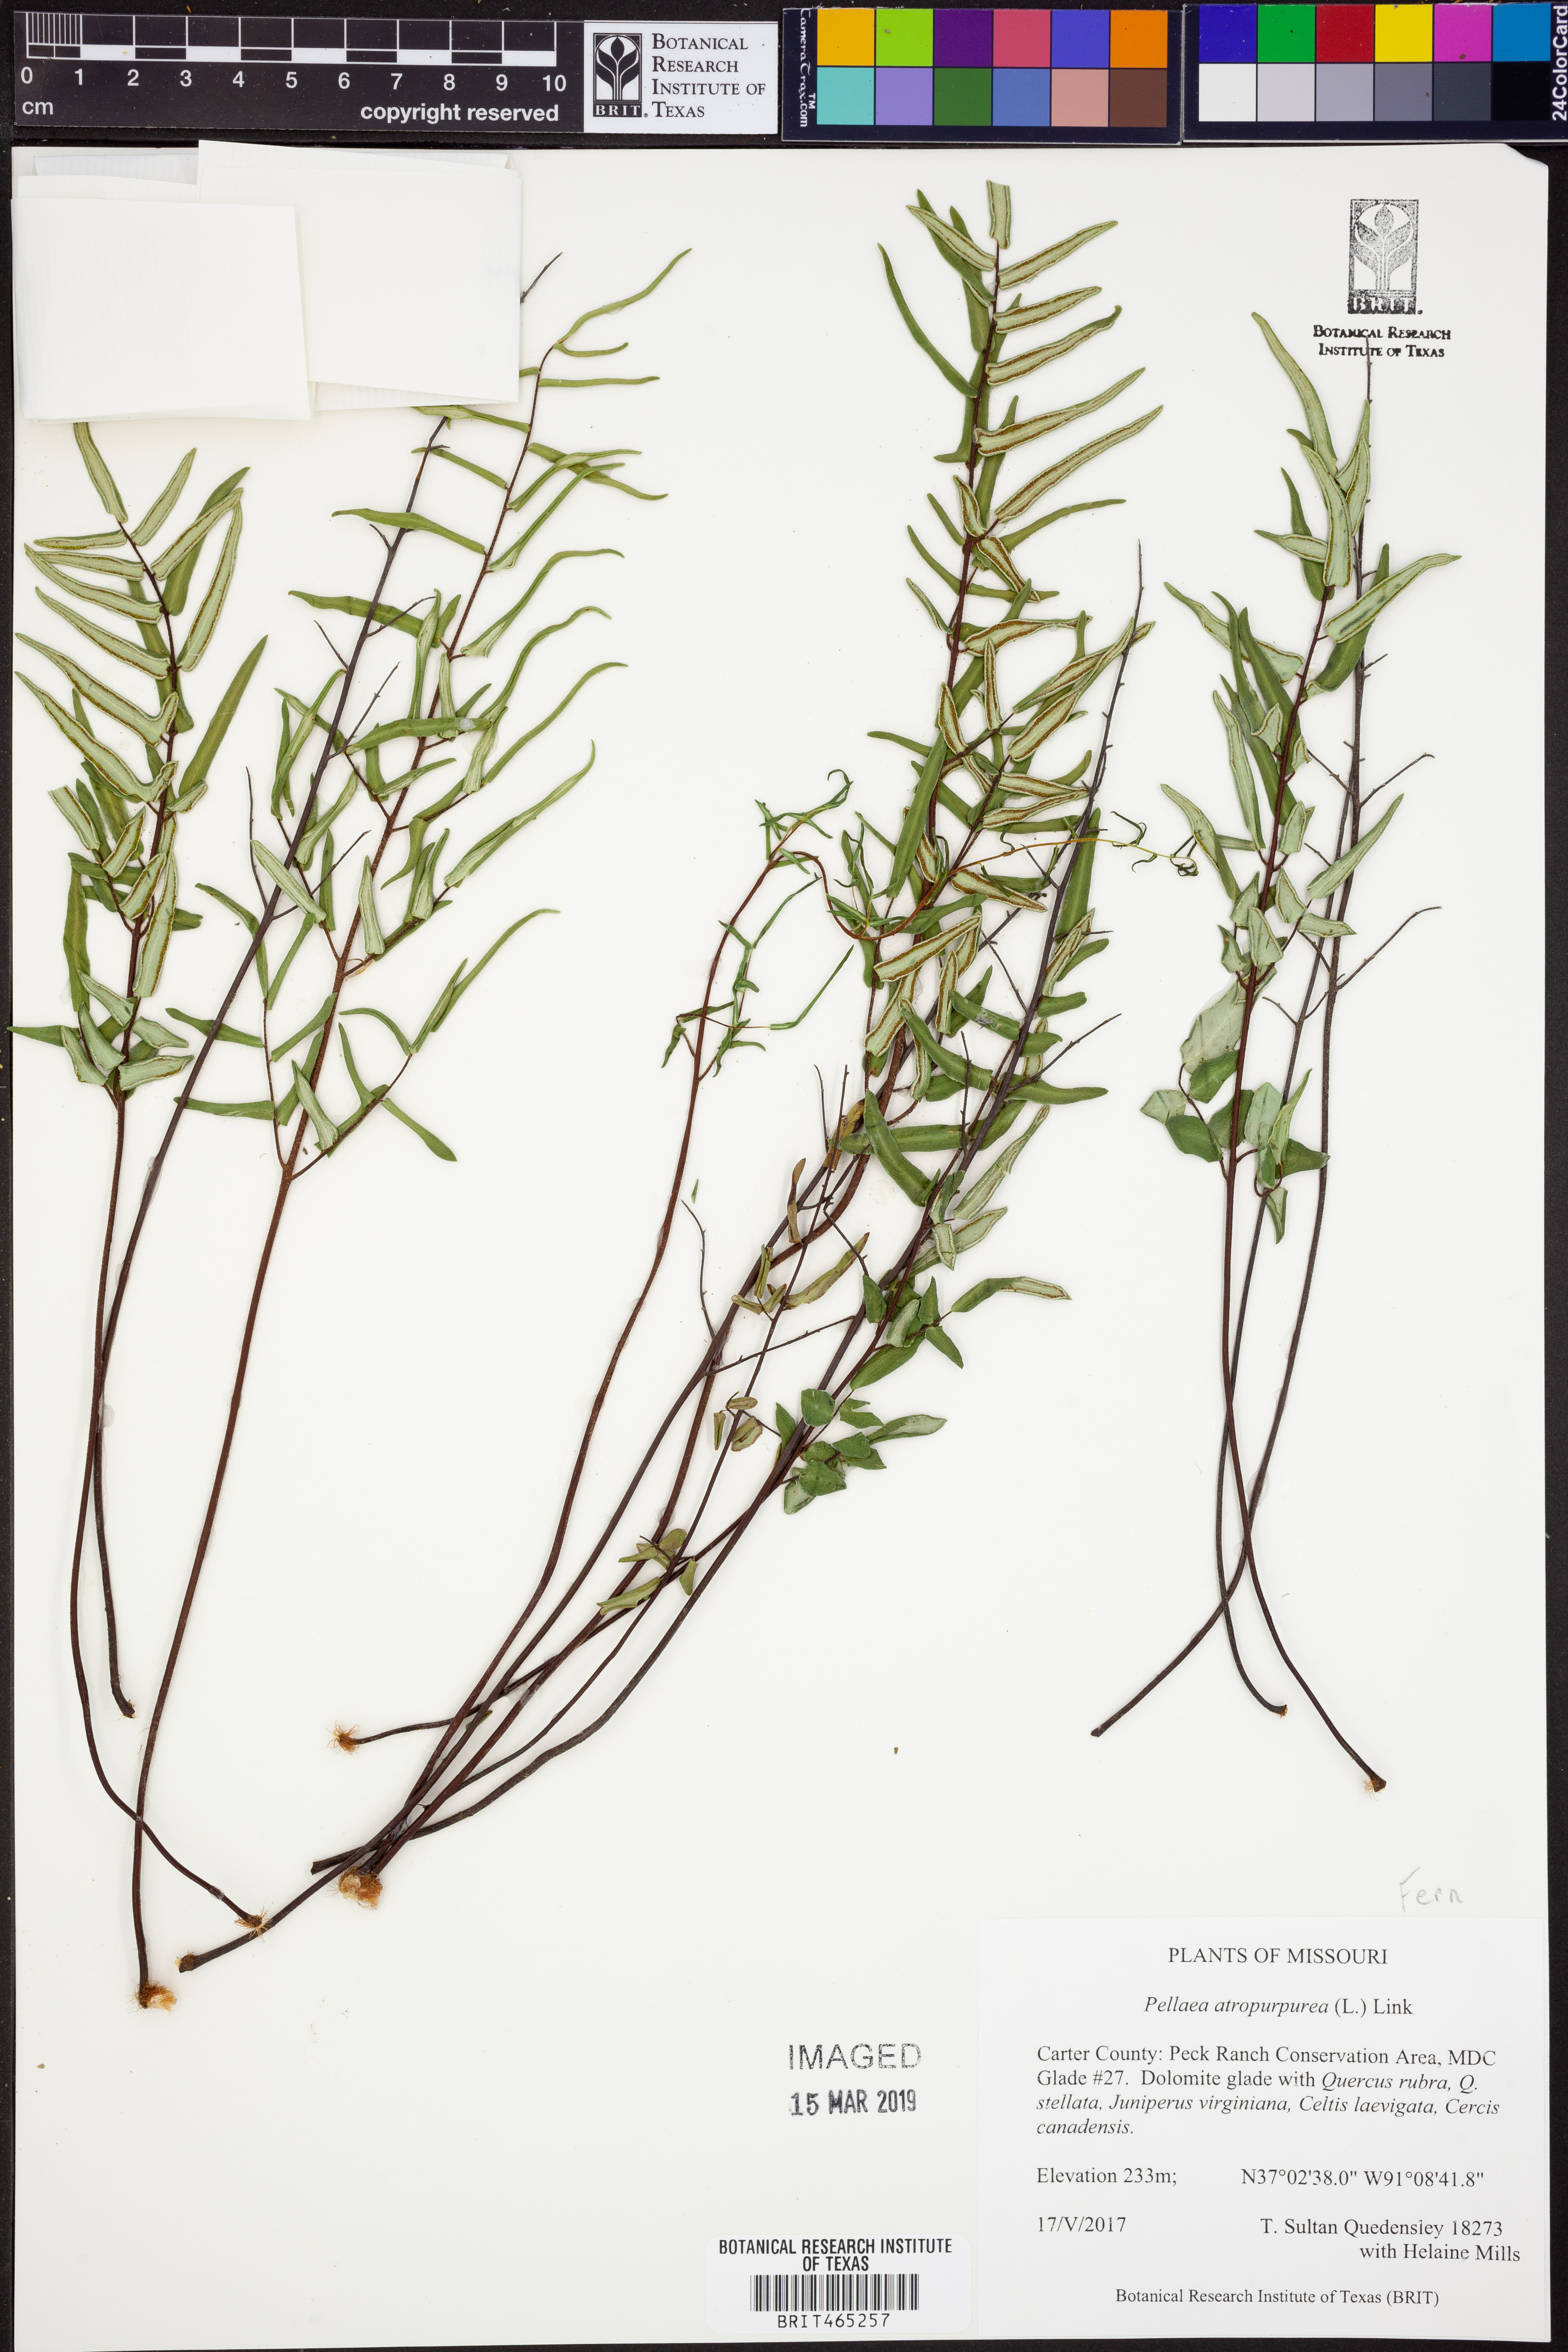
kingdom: Plantae
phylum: Tracheophyta
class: Polypodiopsida
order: Polypodiales
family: Pteridaceae
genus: Pellaea
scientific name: Pellaea atropurpurea
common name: Hairy cliffbrake
